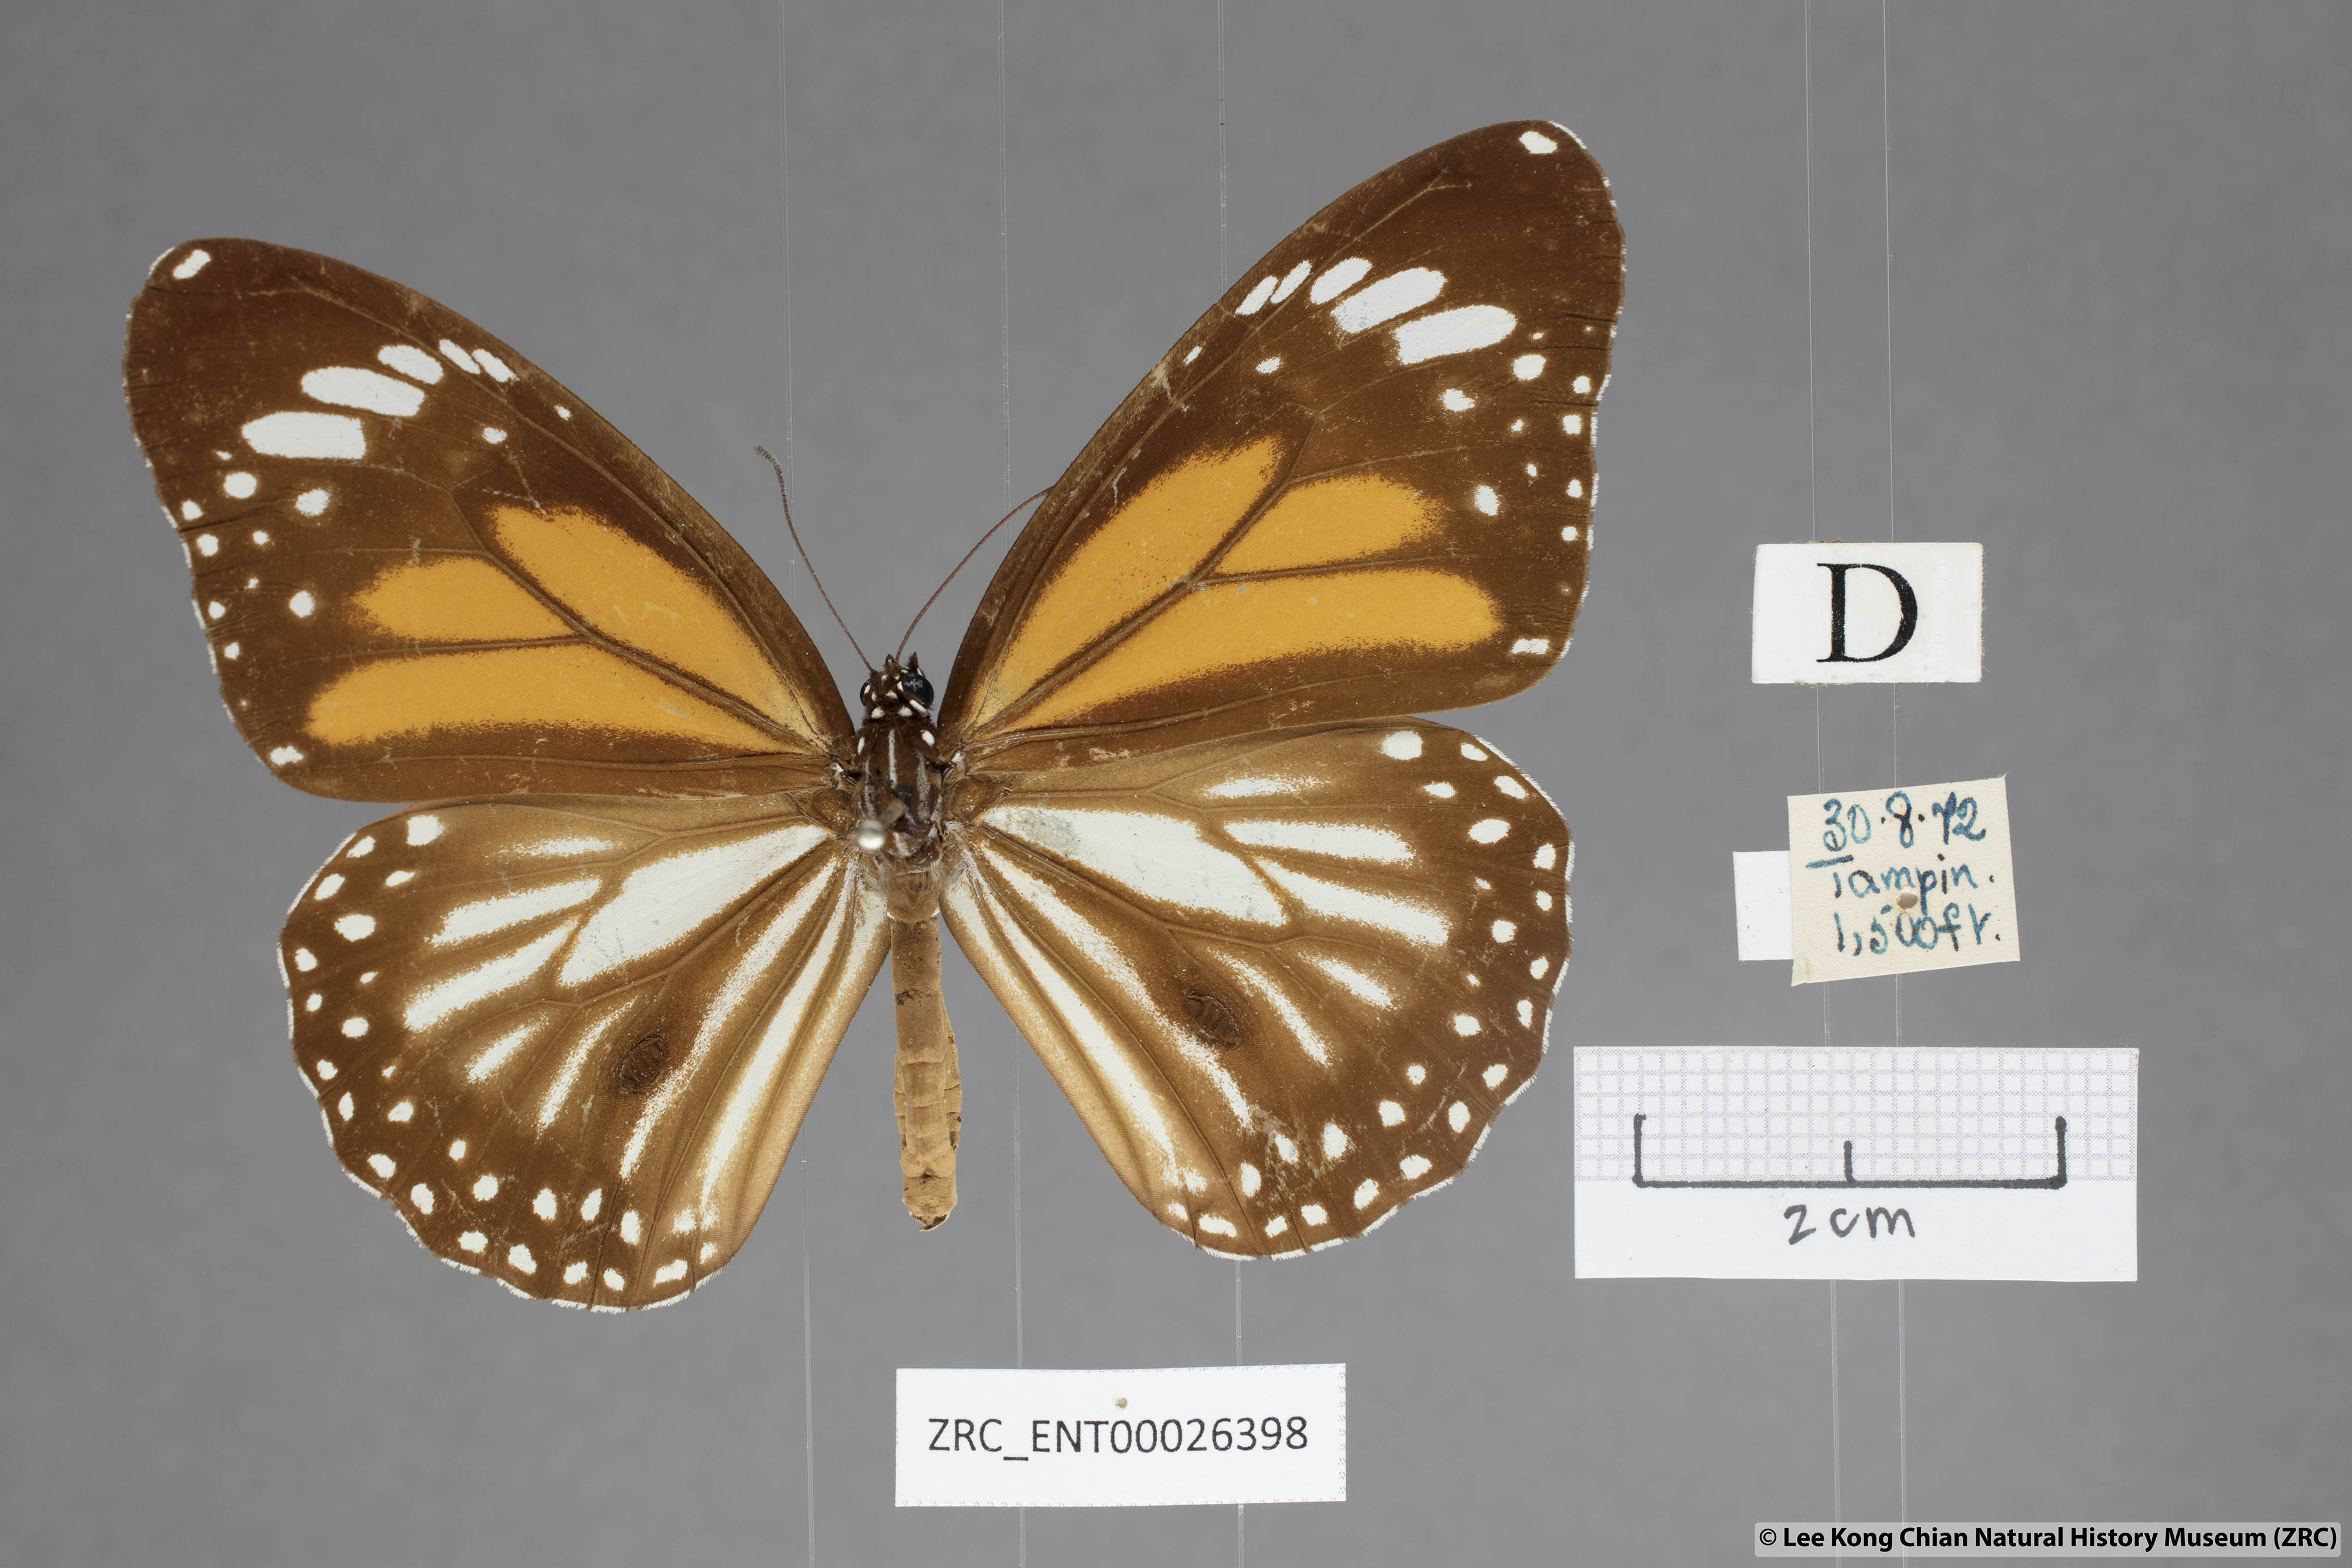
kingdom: Animalia
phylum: Arthropoda
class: Insecta
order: Lepidoptera
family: Nymphalidae
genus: Danaus
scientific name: Danaus melanippus
